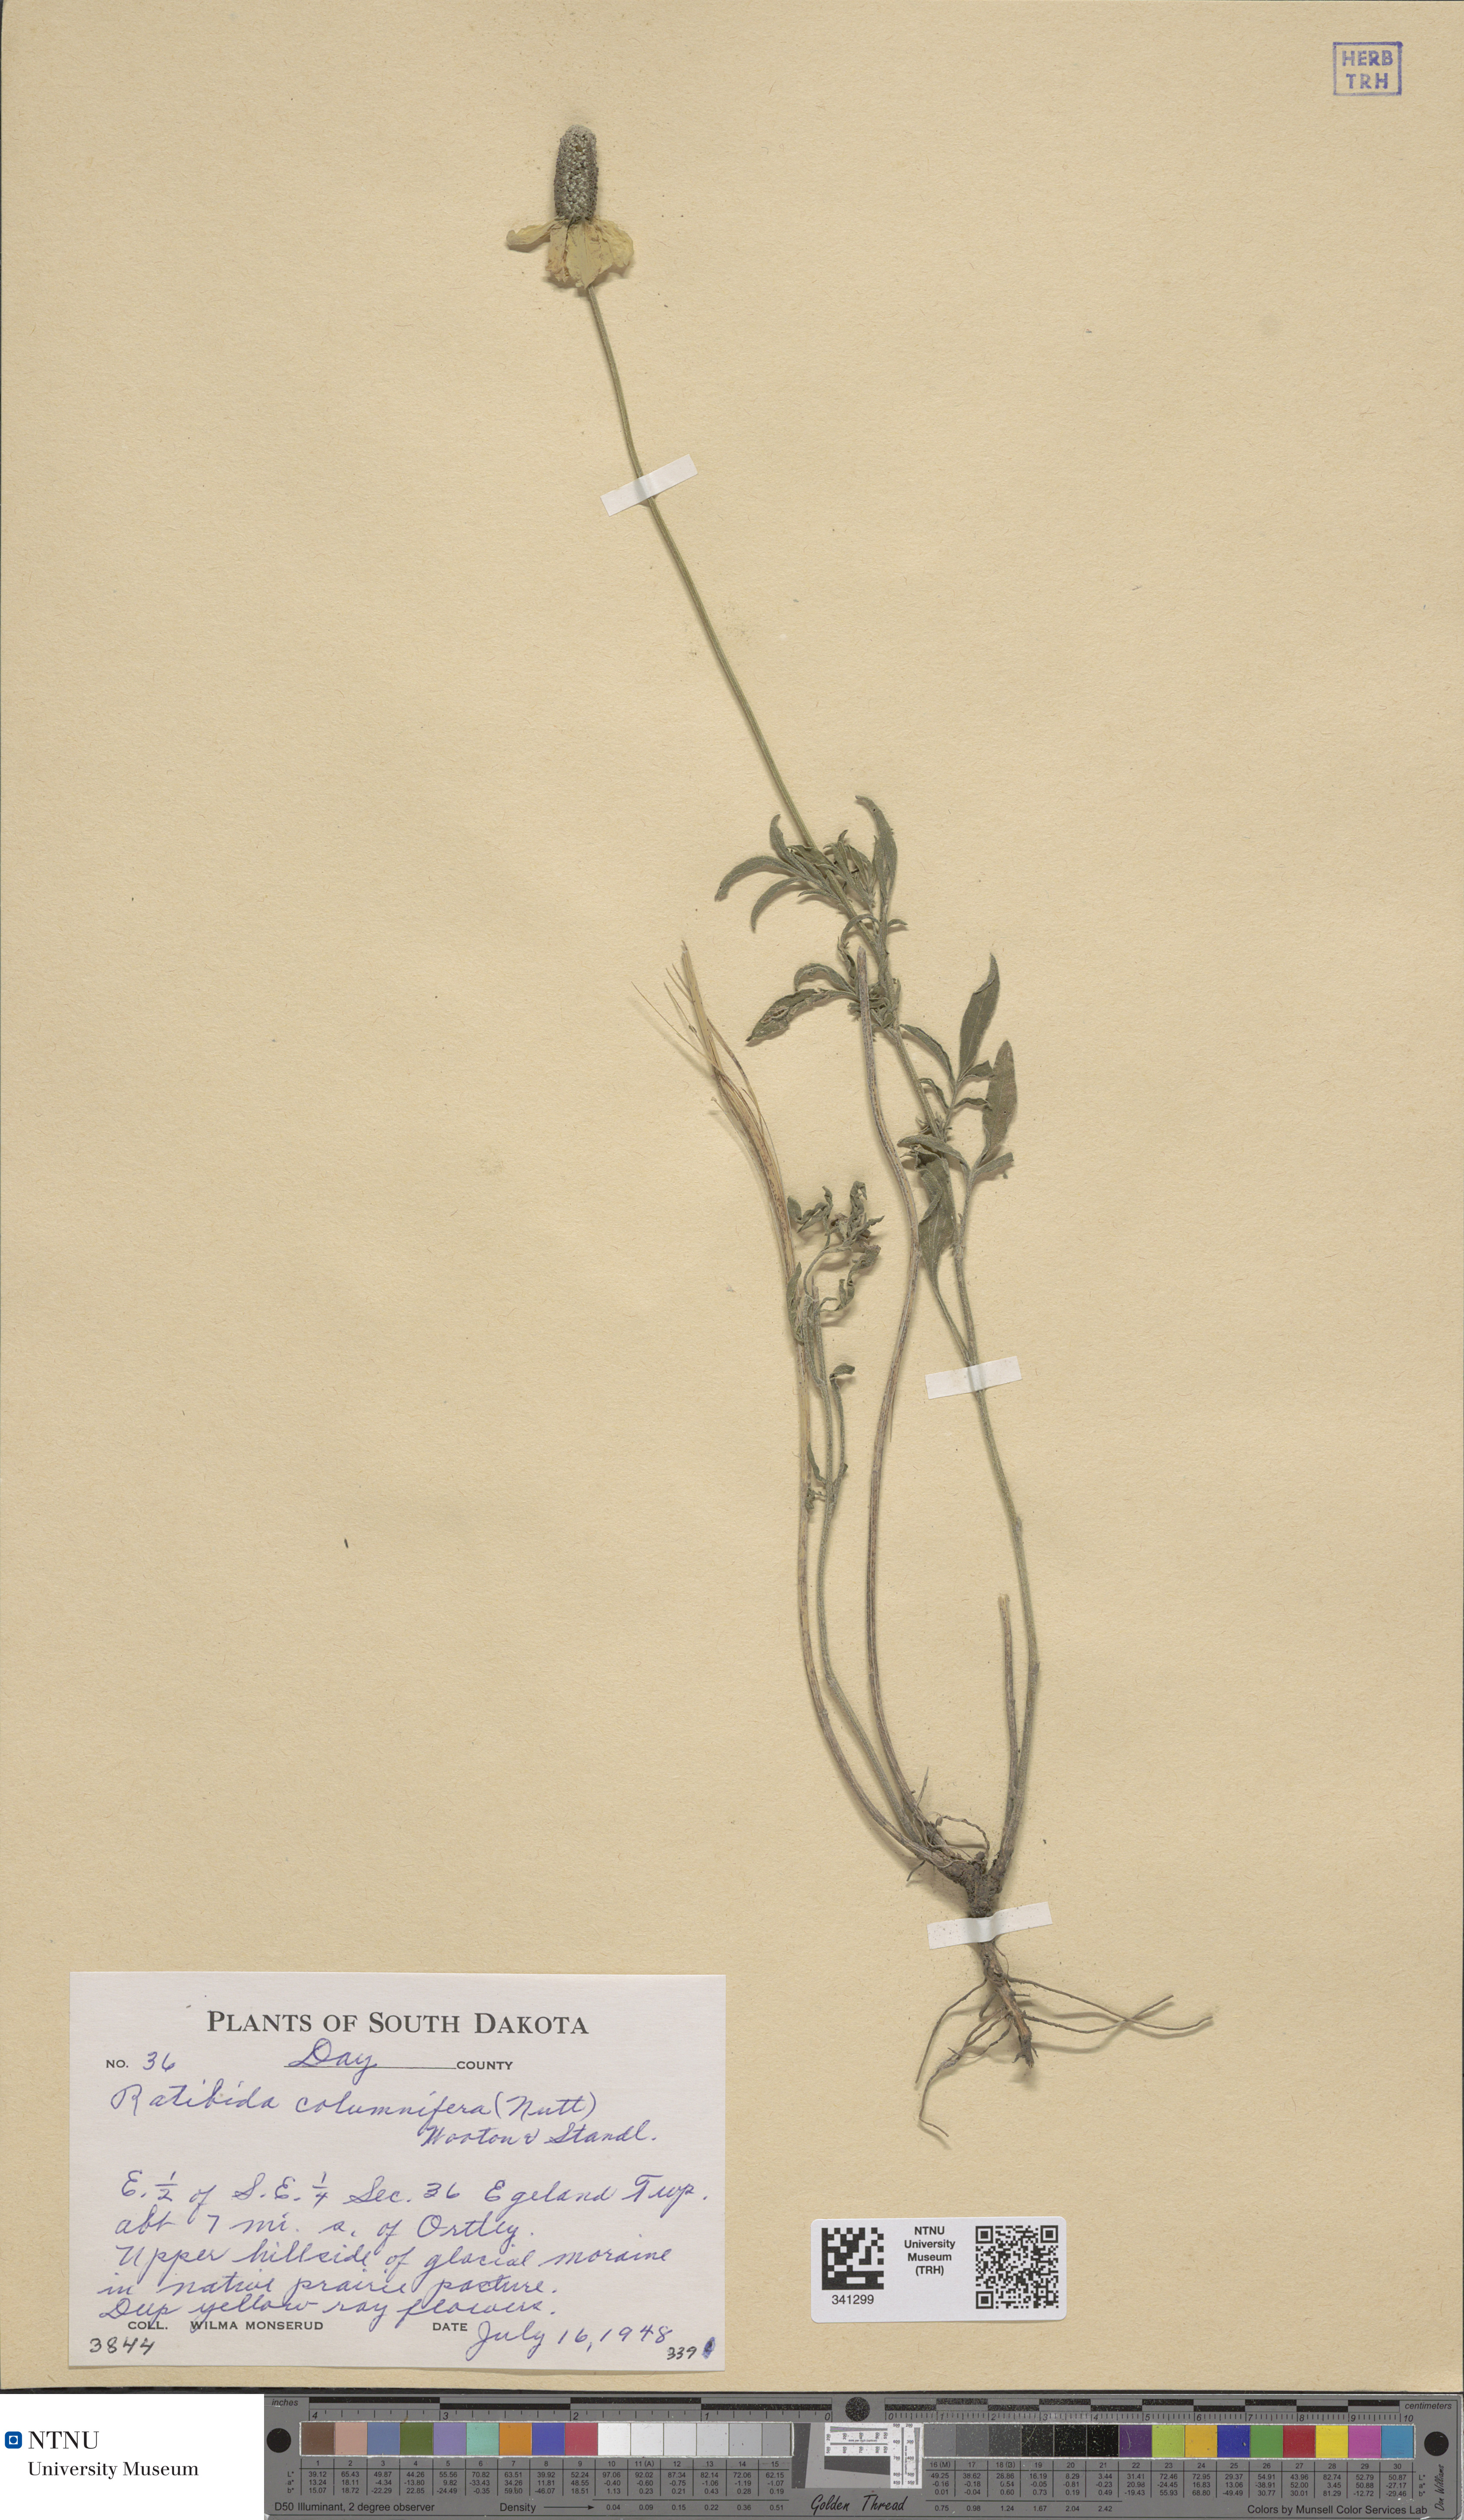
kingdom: Plantae
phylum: Tracheophyta
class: Magnoliopsida
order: Asterales
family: Asteraceae
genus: Ratibida
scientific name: Ratibida columnifera
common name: Prairie coneflower
